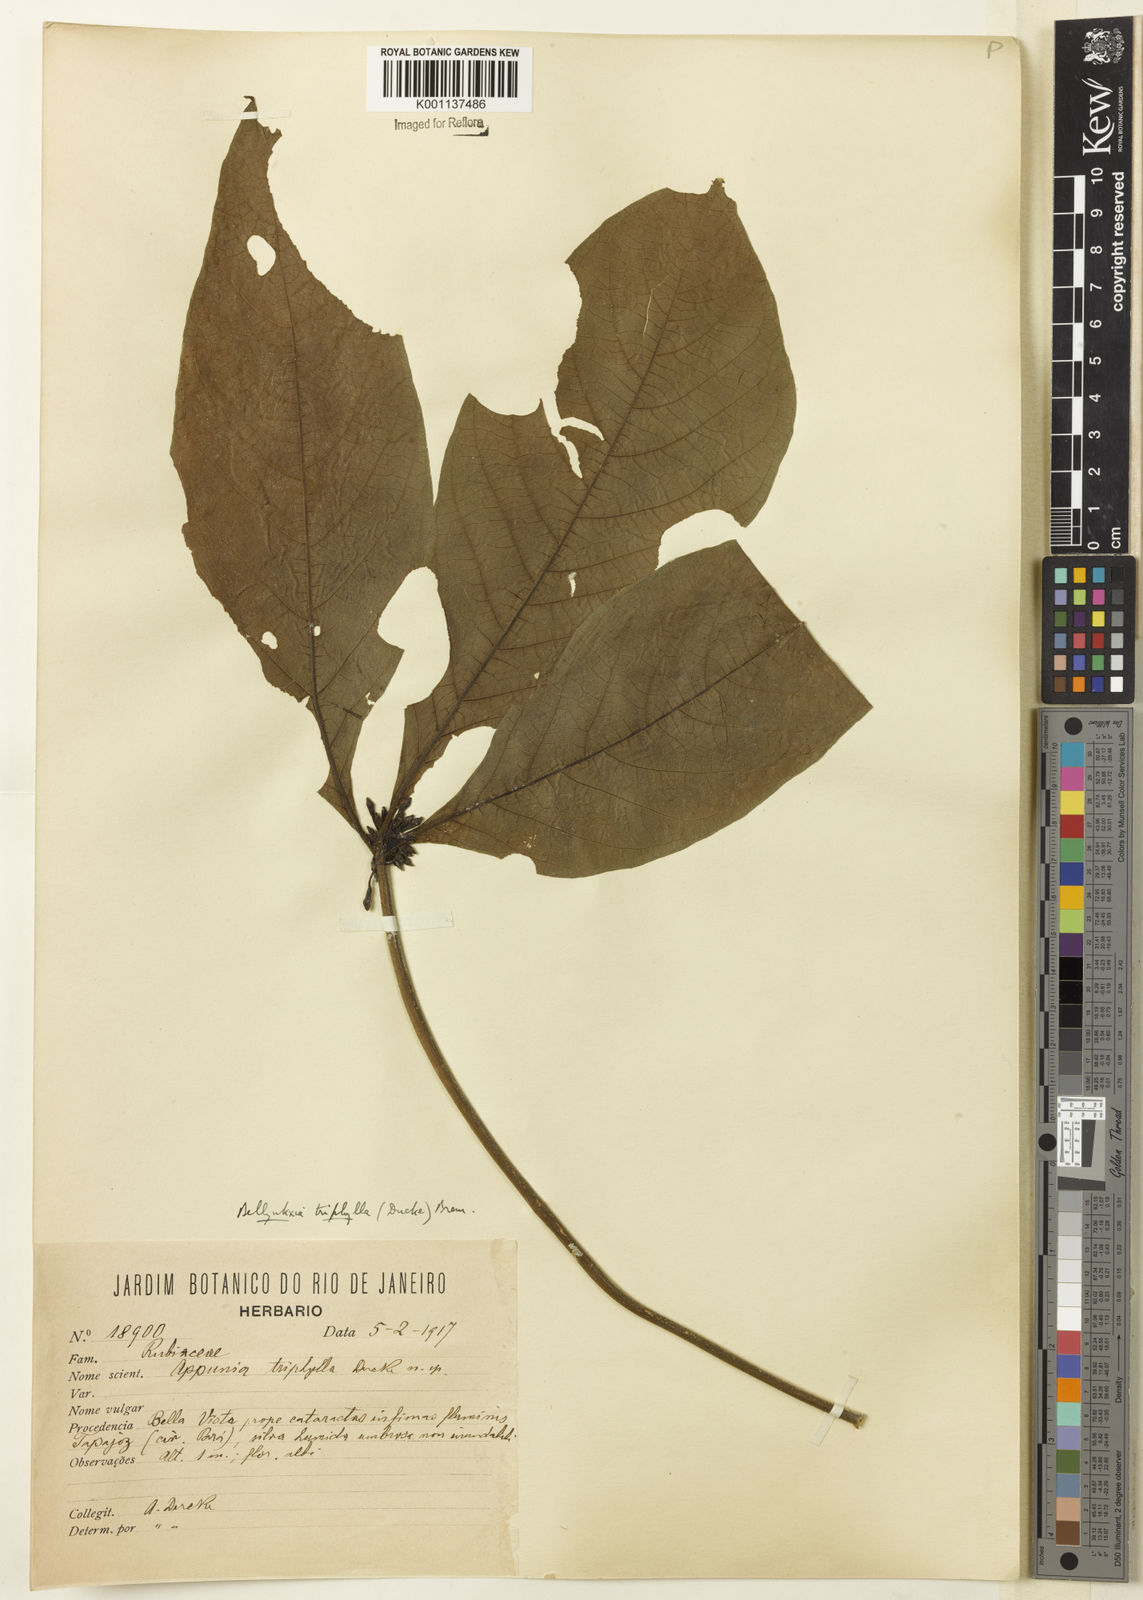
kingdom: Plantae
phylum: Tracheophyta
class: Magnoliopsida
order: Gentianales
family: Rubiaceae
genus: Appunia
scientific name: Appunia triphylla
